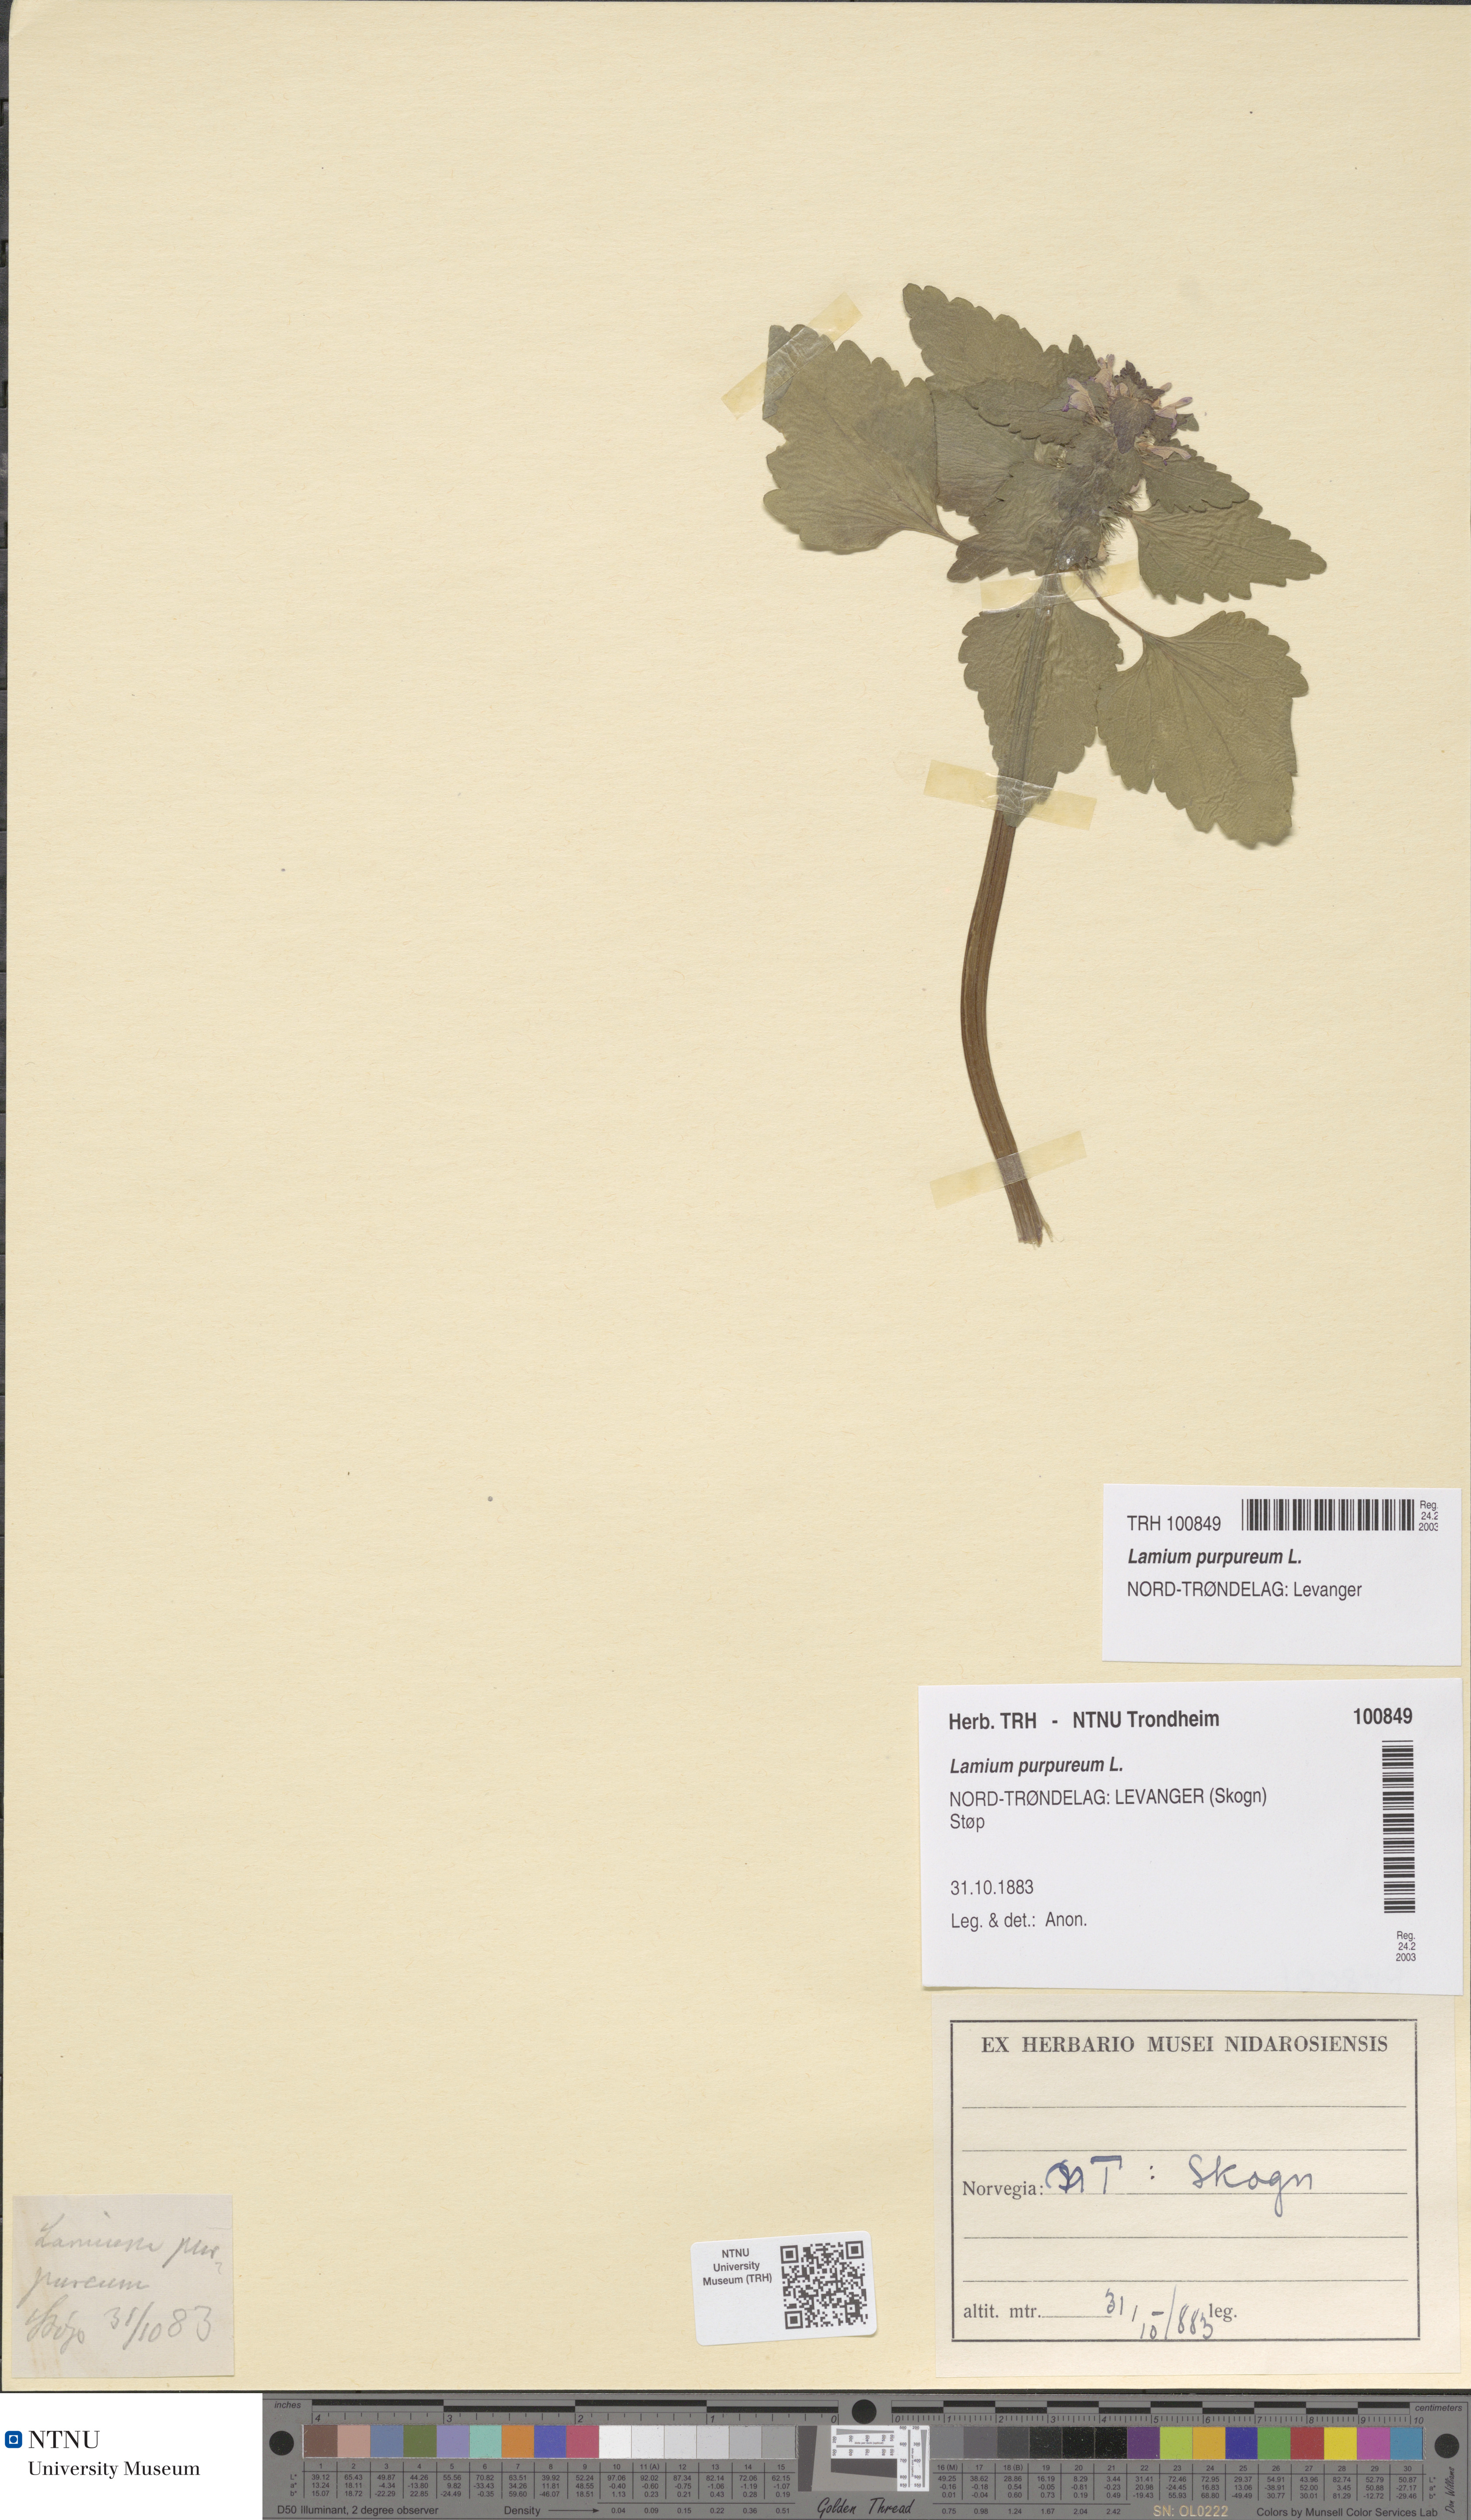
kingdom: Plantae
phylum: Tracheophyta
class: Magnoliopsida
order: Lamiales
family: Lamiaceae
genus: Lamium
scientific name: Lamium purpureum
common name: Red dead-nettle
